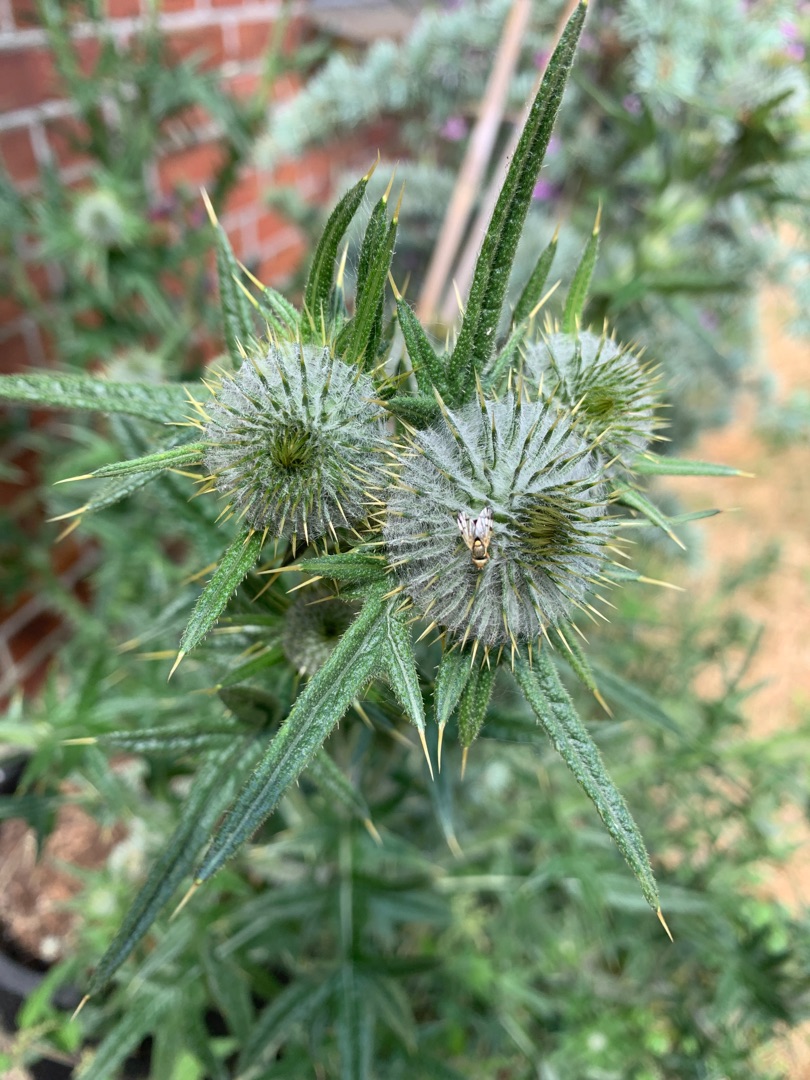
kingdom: Plantae
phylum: Tracheophyta
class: Magnoliopsida
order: Asterales
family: Asteraceae
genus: Cirsium
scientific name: Cirsium vulgare
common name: Horse-tidsel
